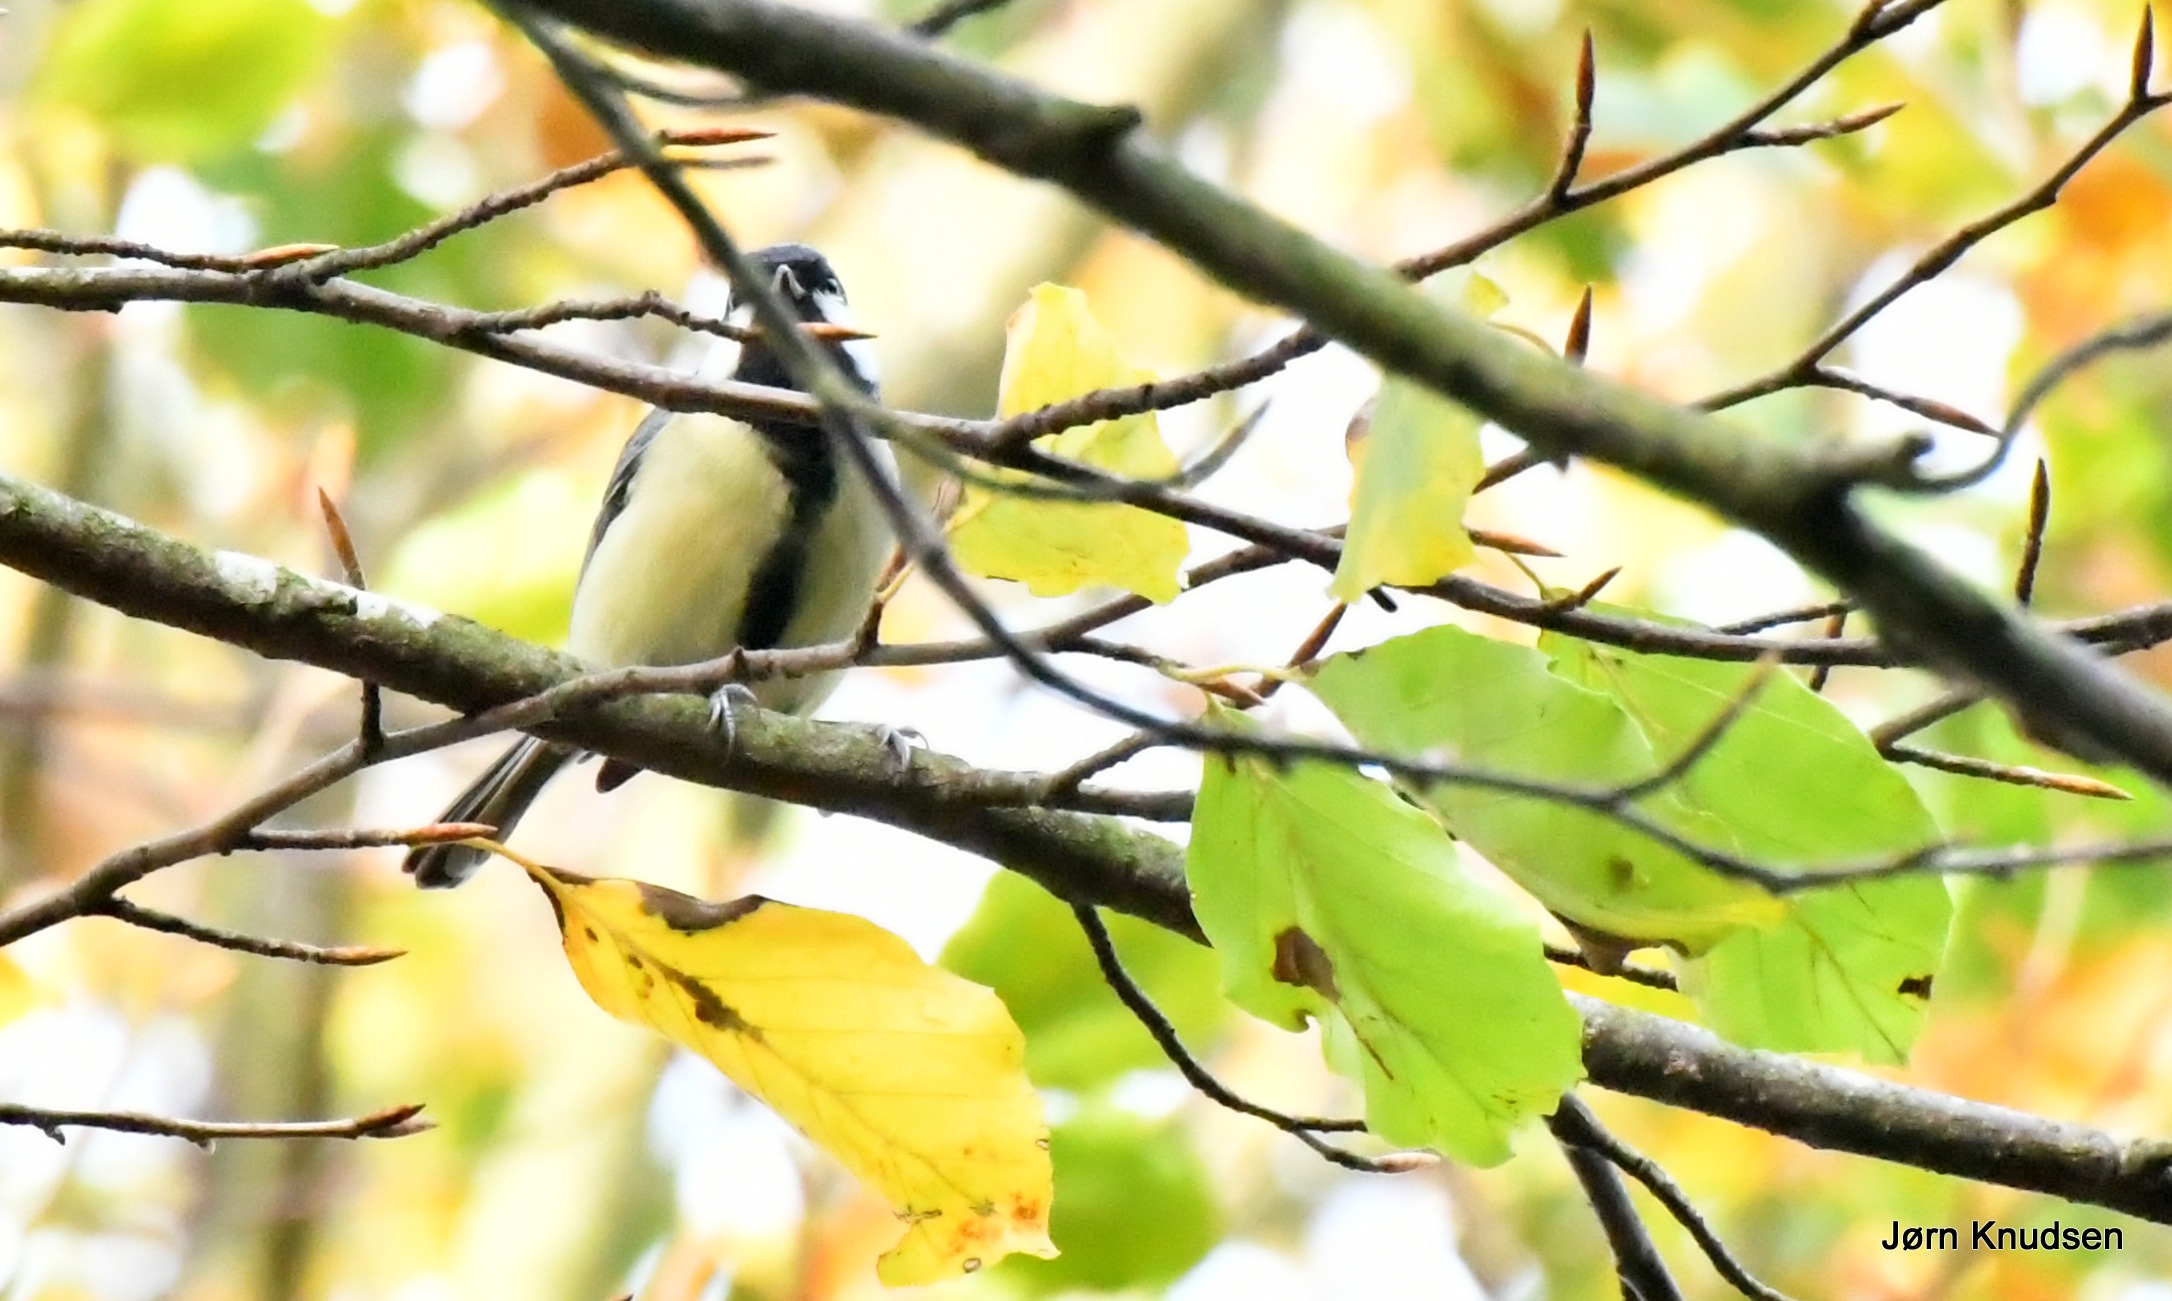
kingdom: Animalia
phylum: Chordata
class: Aves
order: Passeriformes
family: Paridae
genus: Parus
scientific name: Parus major
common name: Musvit
